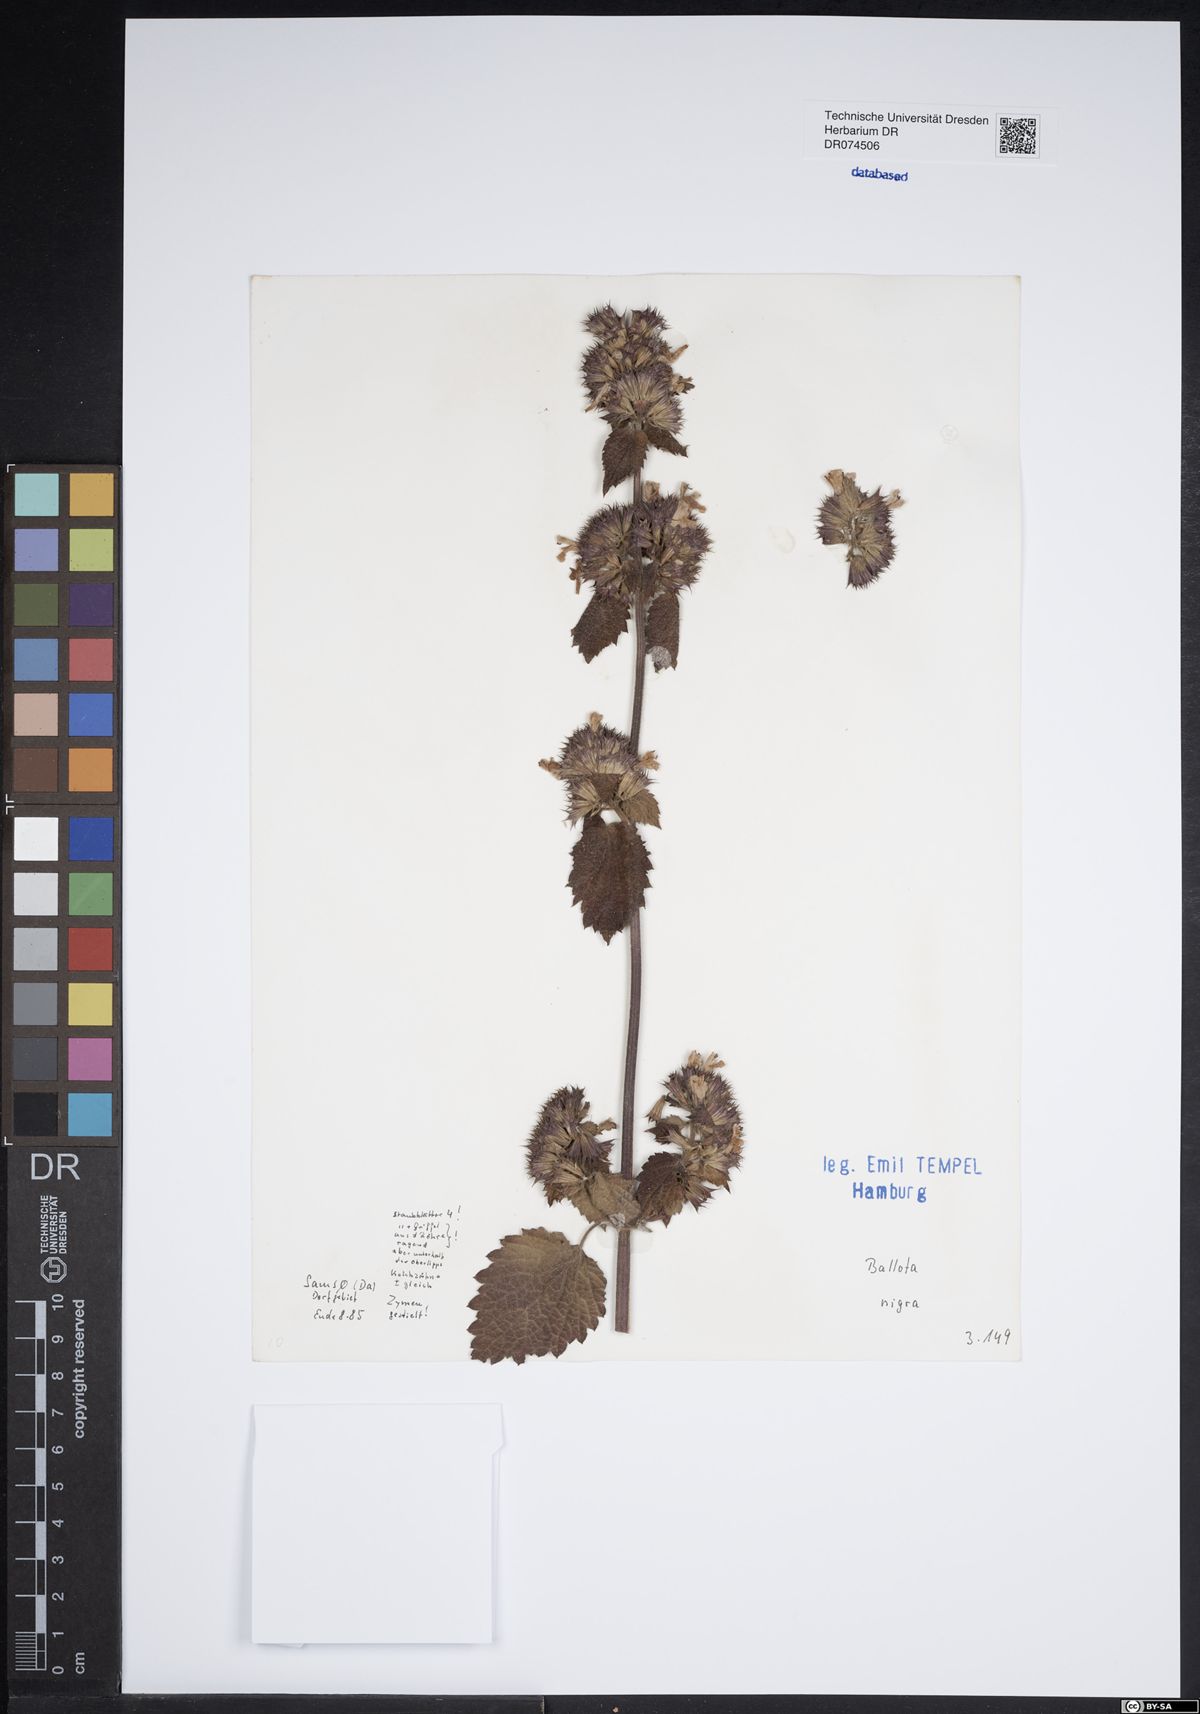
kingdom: Plantae
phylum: Tracheophyta
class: Magnoliopsida
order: Lamiales
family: Lamiaceae
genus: Ballota
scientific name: Ballota nigra
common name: Black horehound
